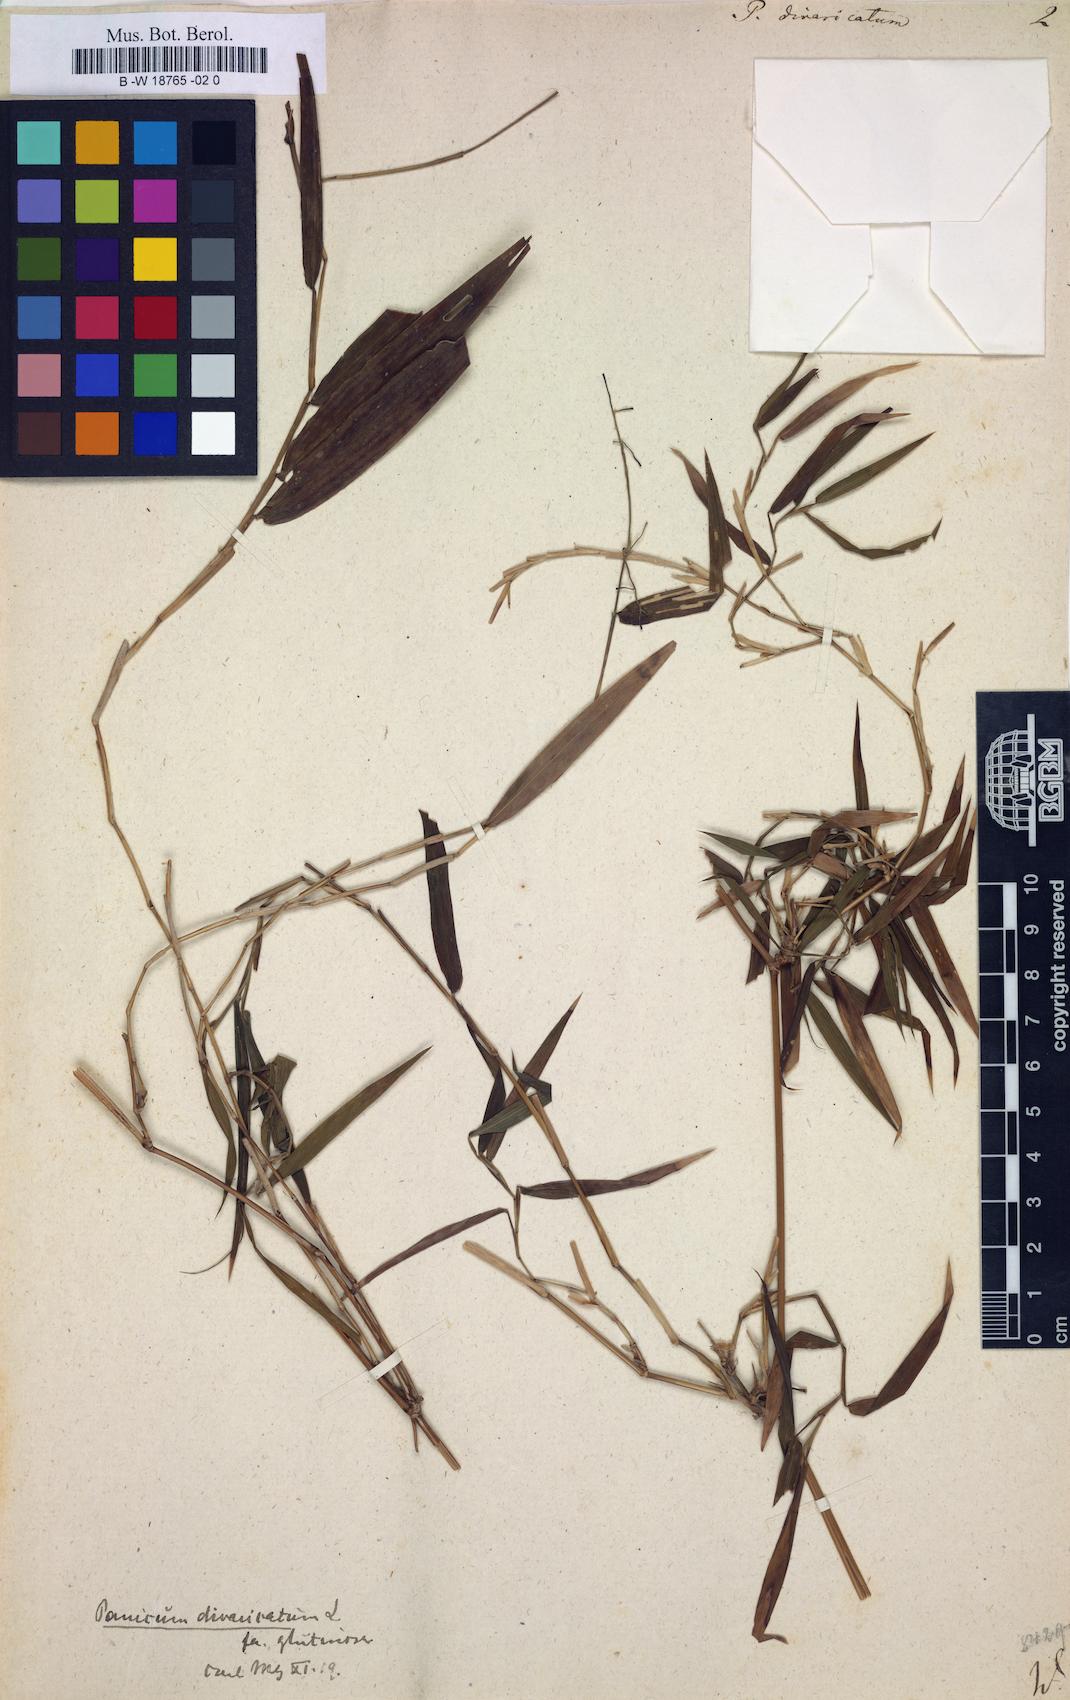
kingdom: Plantae
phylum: Tracheophyta
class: Liliopsida
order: Poales
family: Poaceae
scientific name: Poaceae
